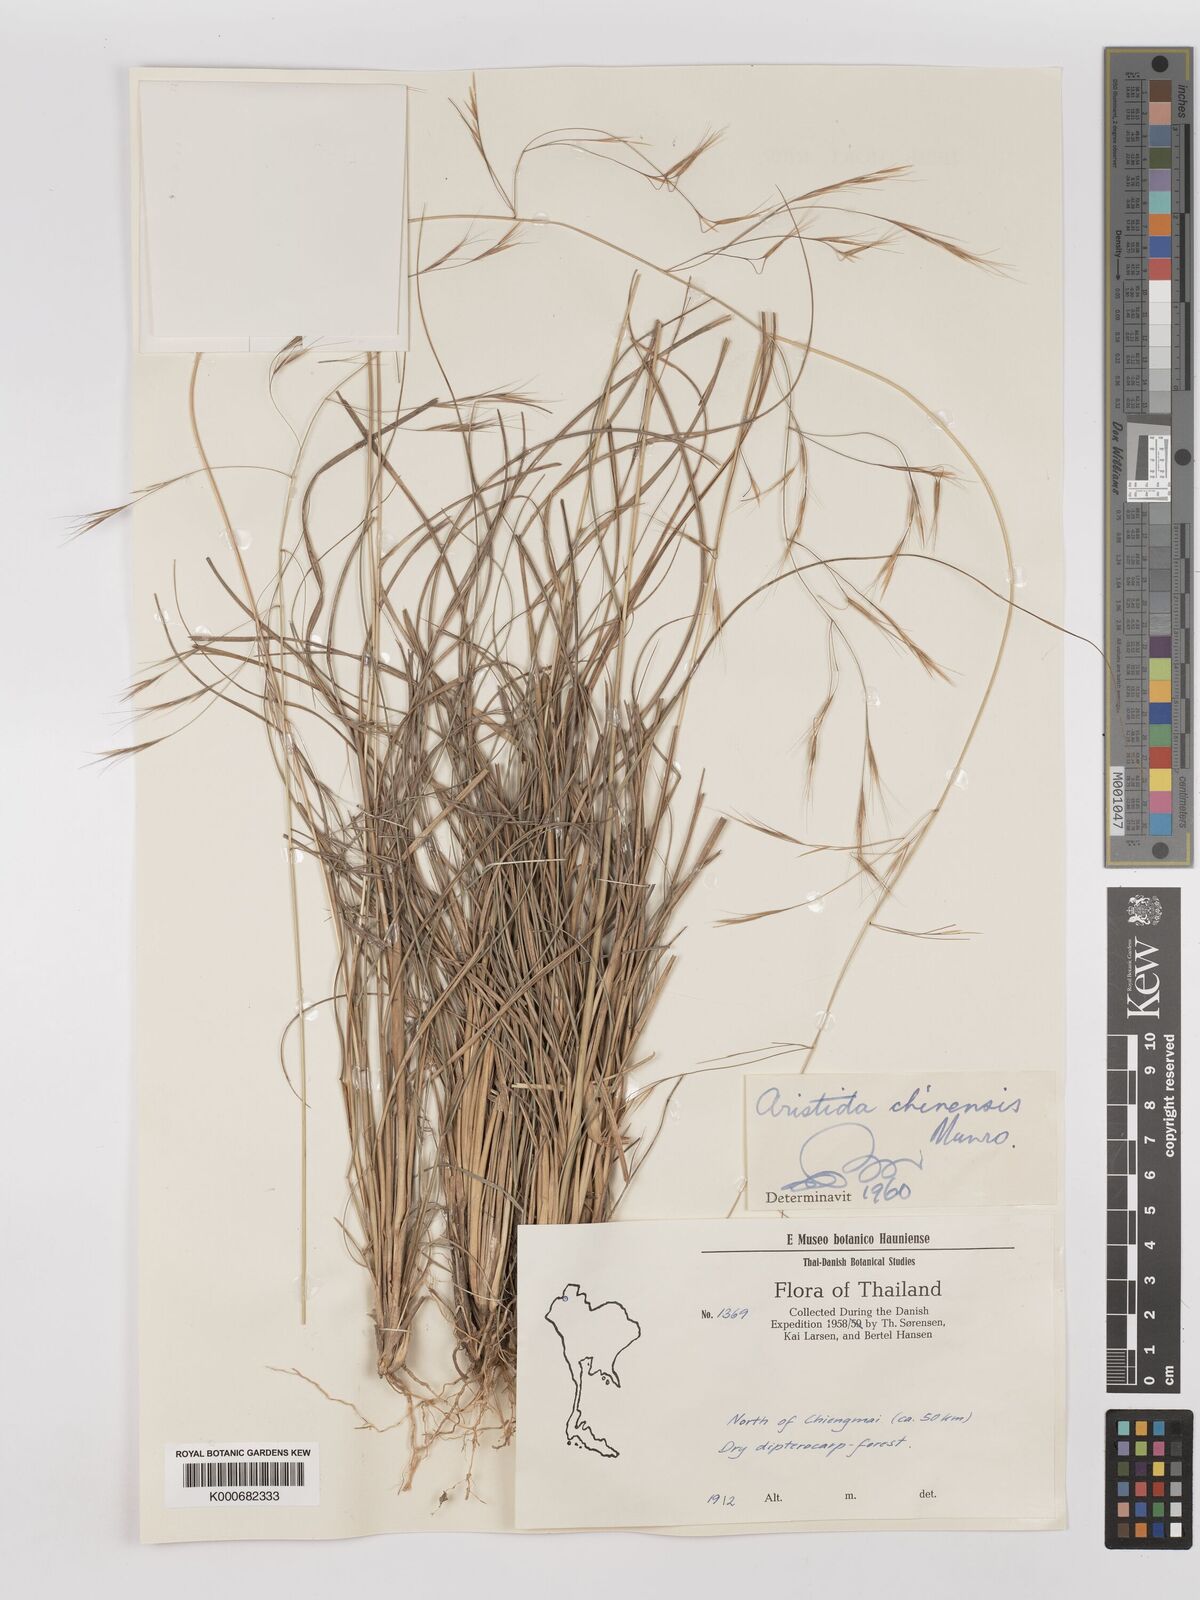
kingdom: Plantae
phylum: Tracheophyta
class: Liliopsida
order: Poales
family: Poaceae
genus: Aristida
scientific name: Aristida chinensis
